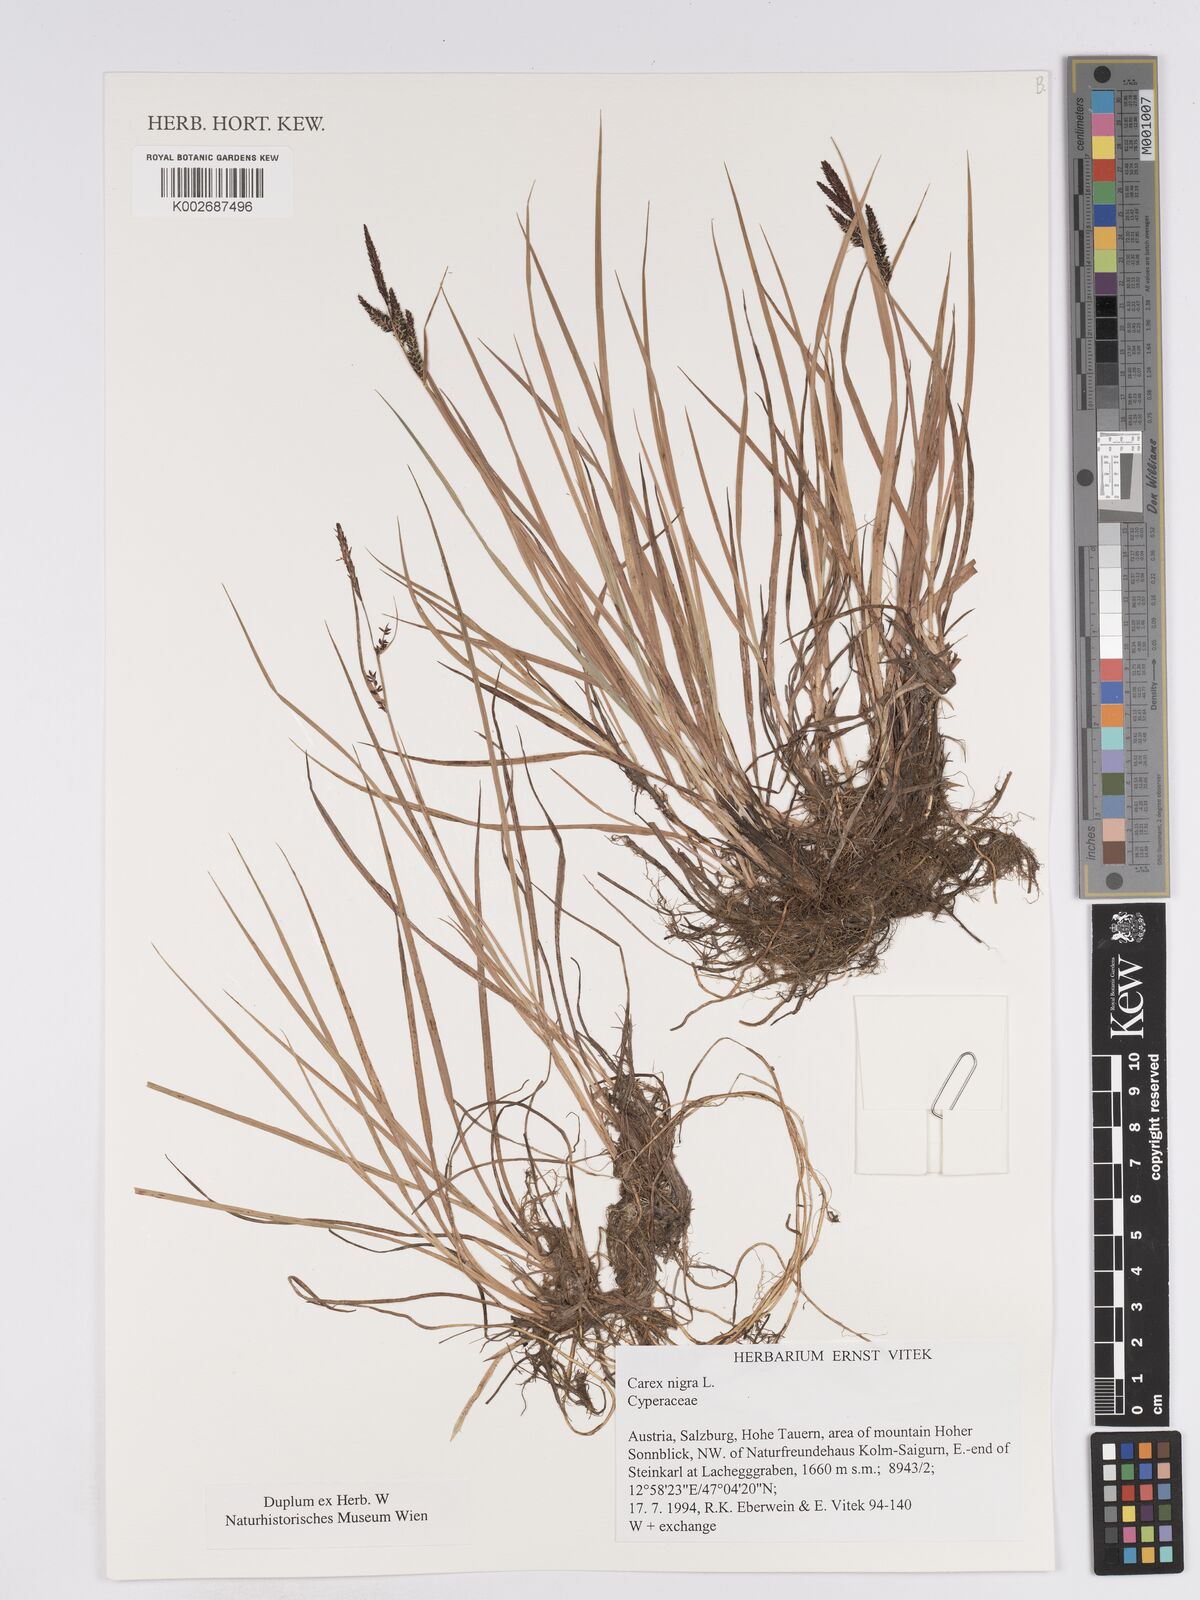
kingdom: Plantae
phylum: Tracheophyta
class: Liliopsida
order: Poales
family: Cyperaceae
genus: Carex
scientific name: Carex nigra
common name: Common sedge
